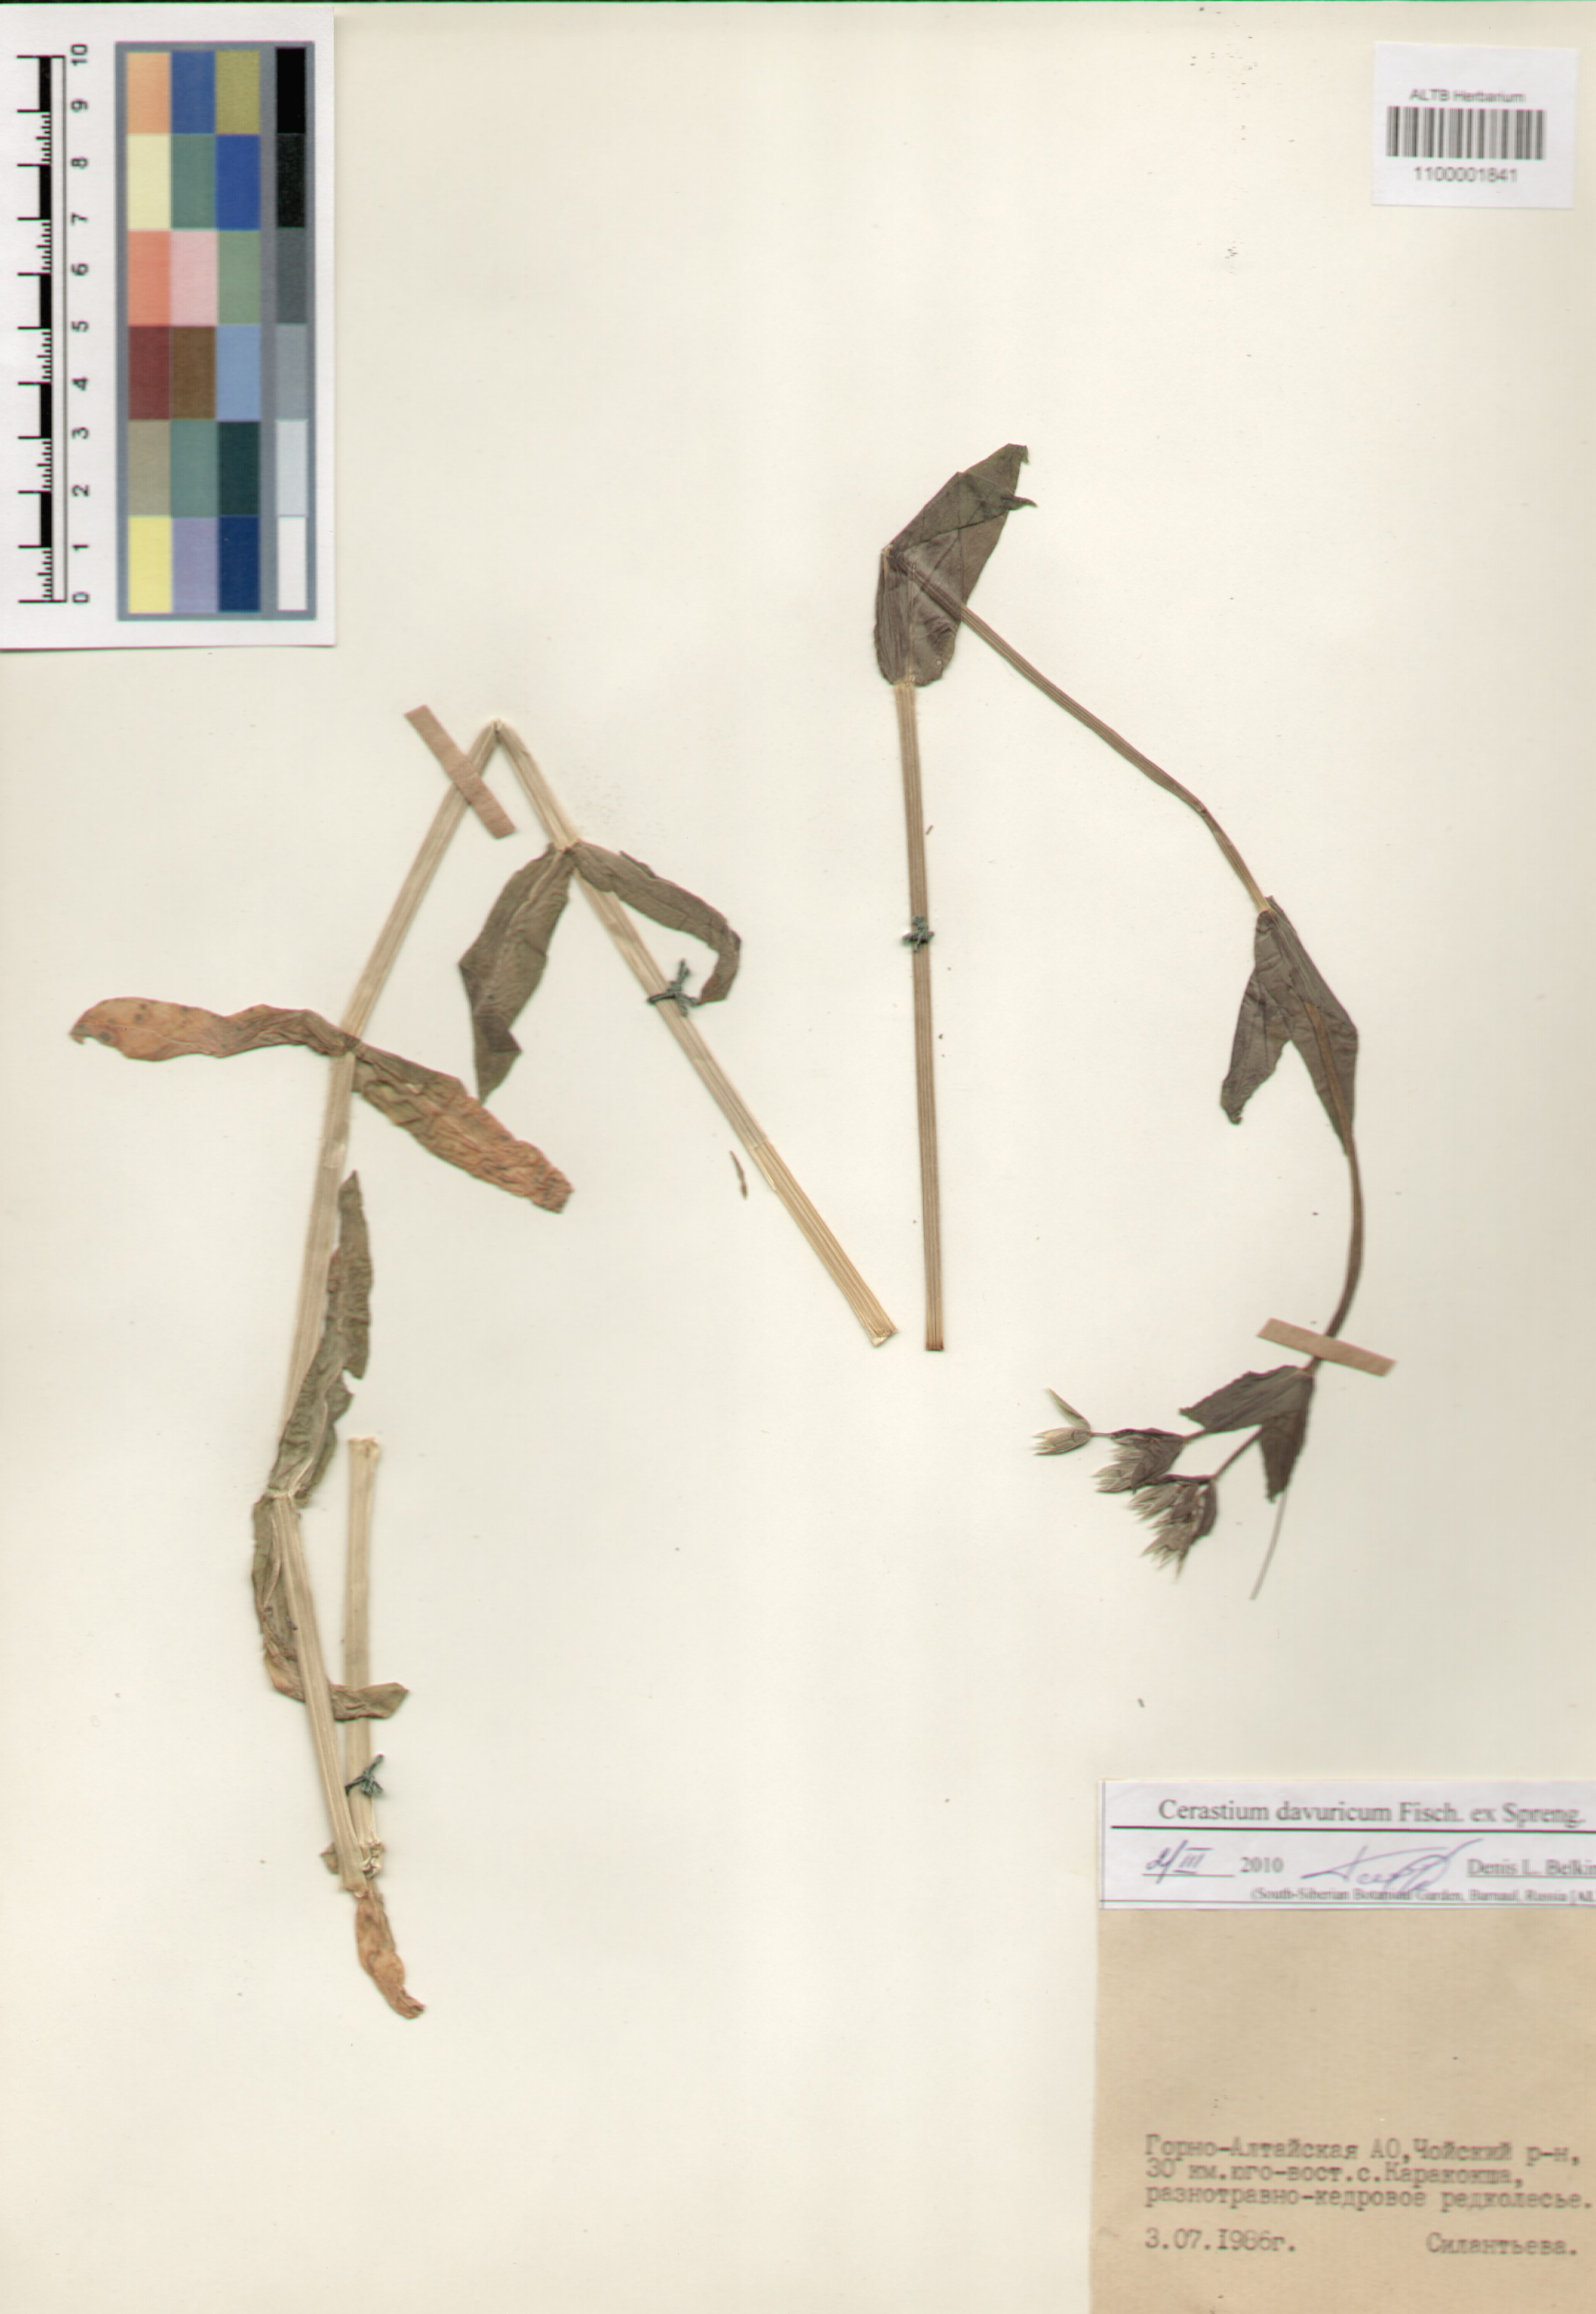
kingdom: Plantae
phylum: Tracheophyta
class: Magnoliopsida
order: Caryophyllales
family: Caryophyllaceae
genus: Dichodon
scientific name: Dichodon davuricum
